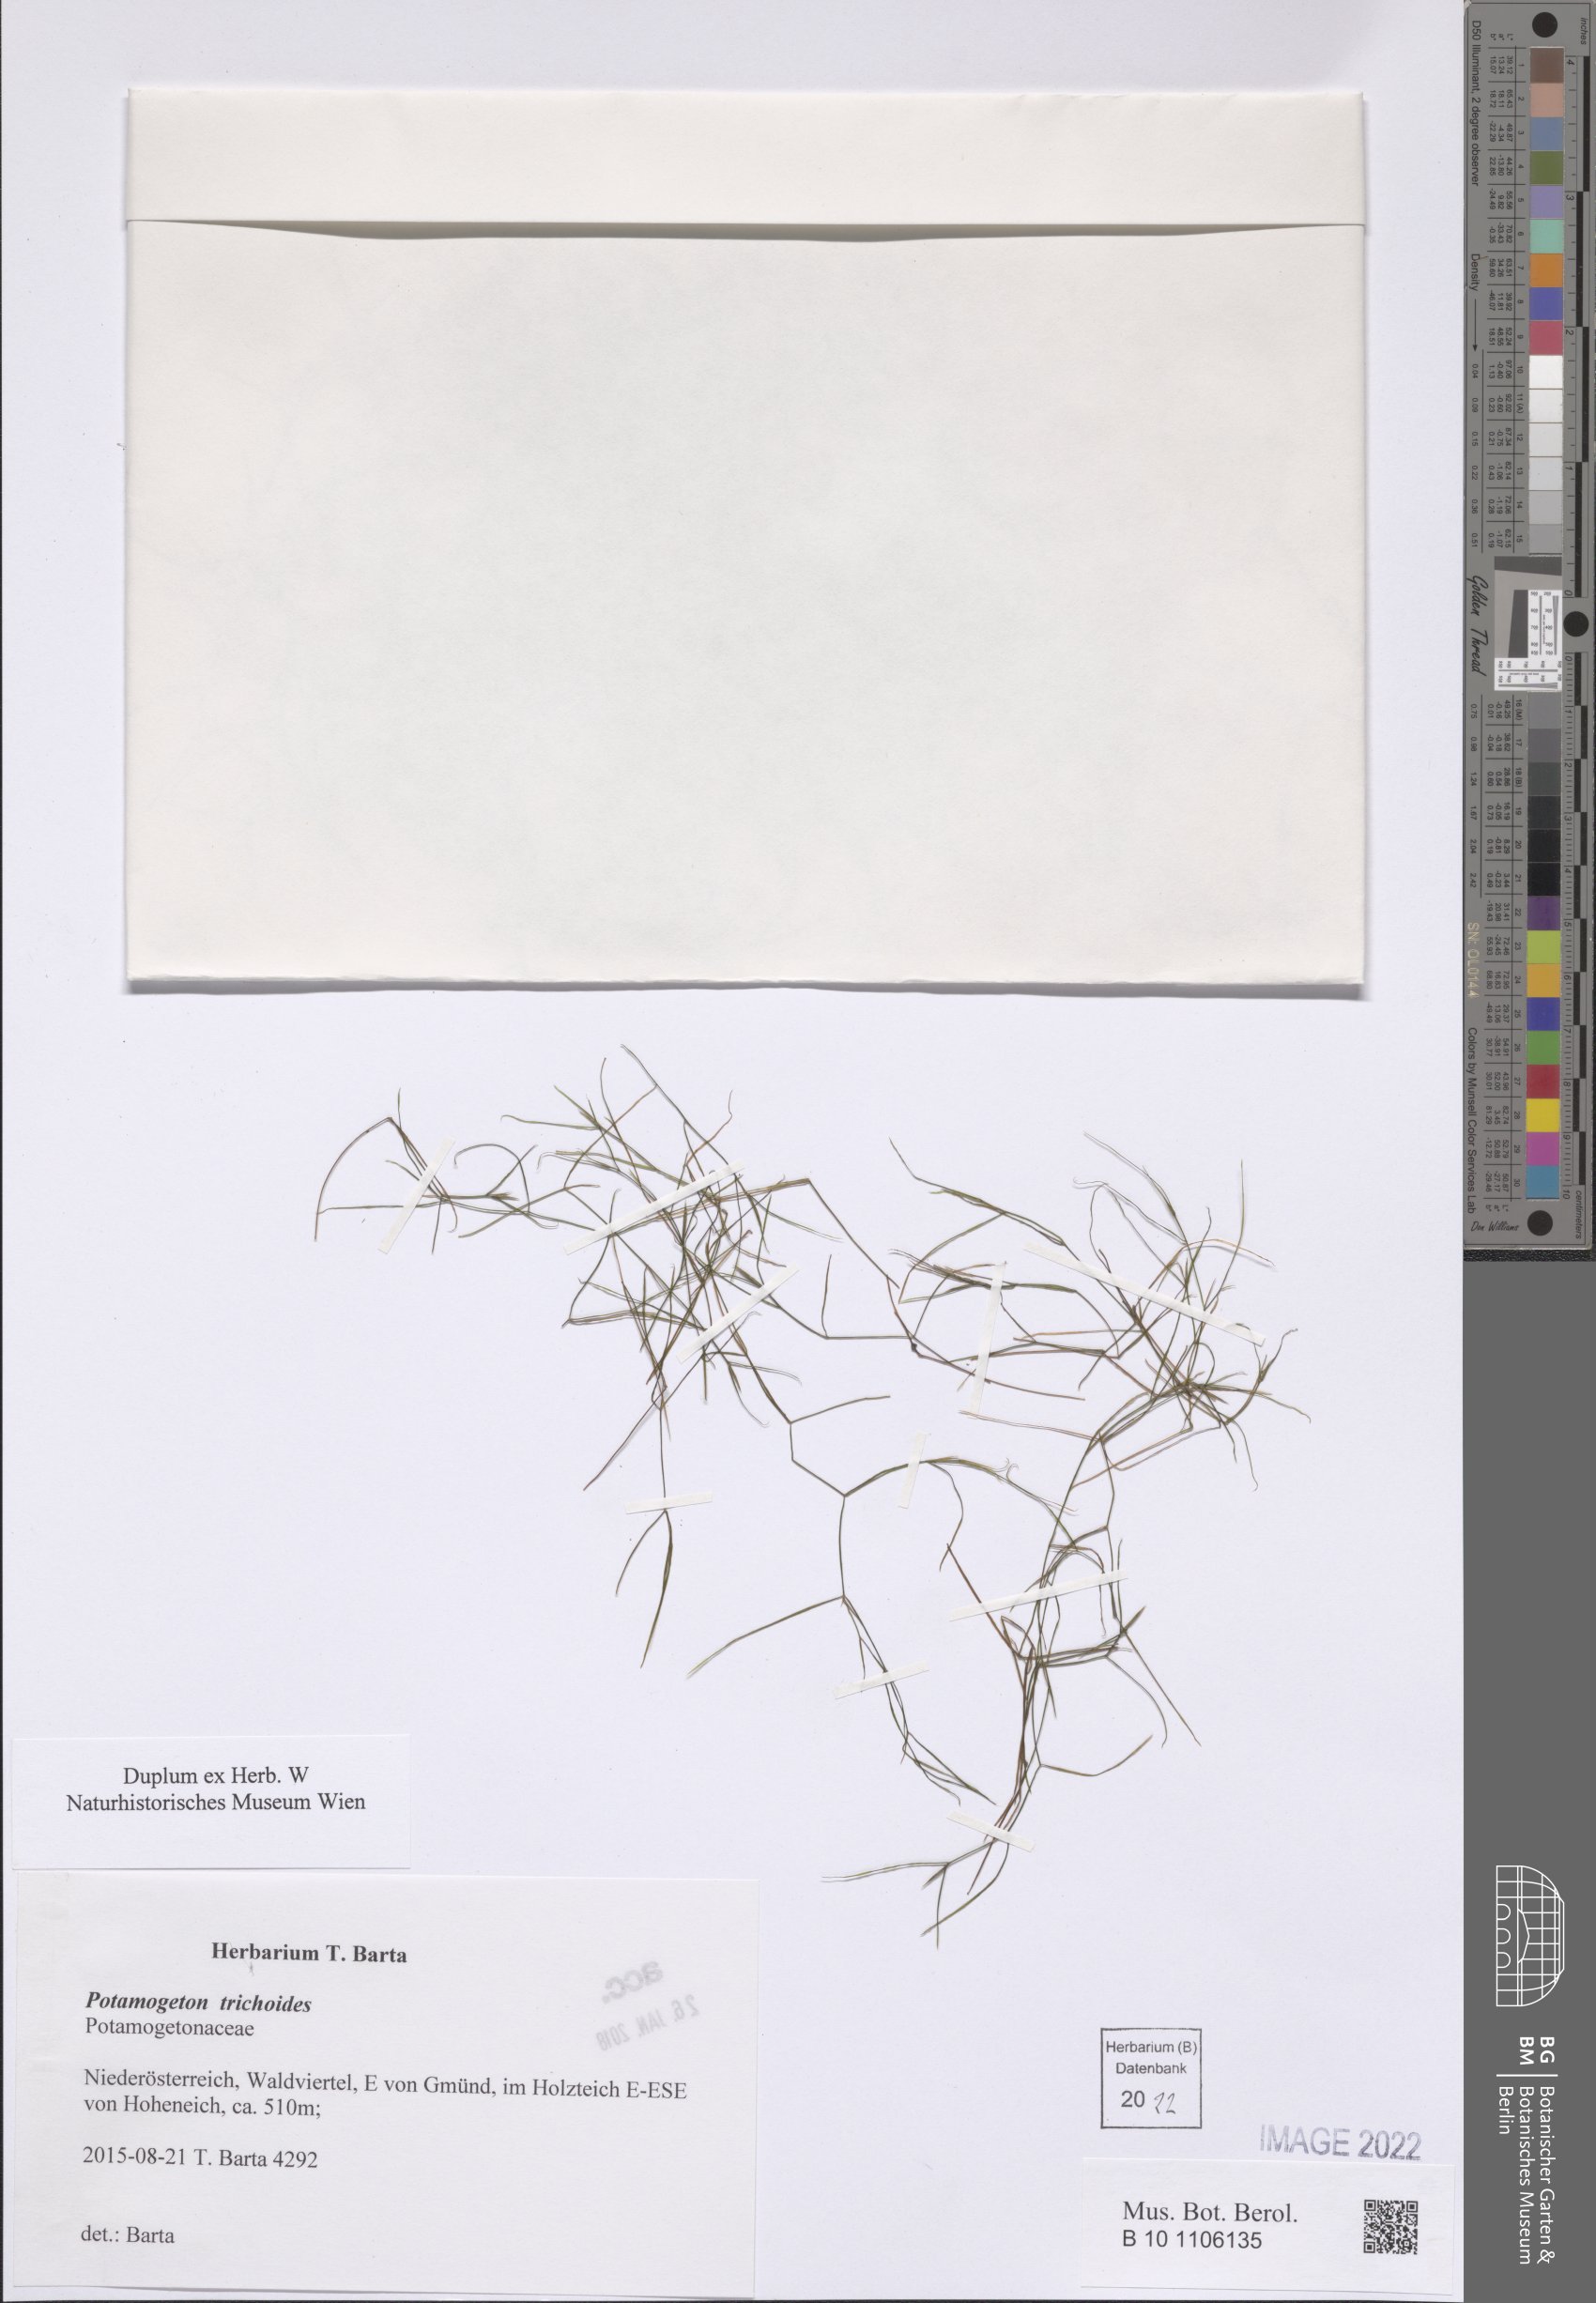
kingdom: Plantae
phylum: Tracheophyta
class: Liliopsida
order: Alismatales
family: Potamogetonaceae
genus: Potamogeton
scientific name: Potamogeton trichoides
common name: Hairlike pondweed
